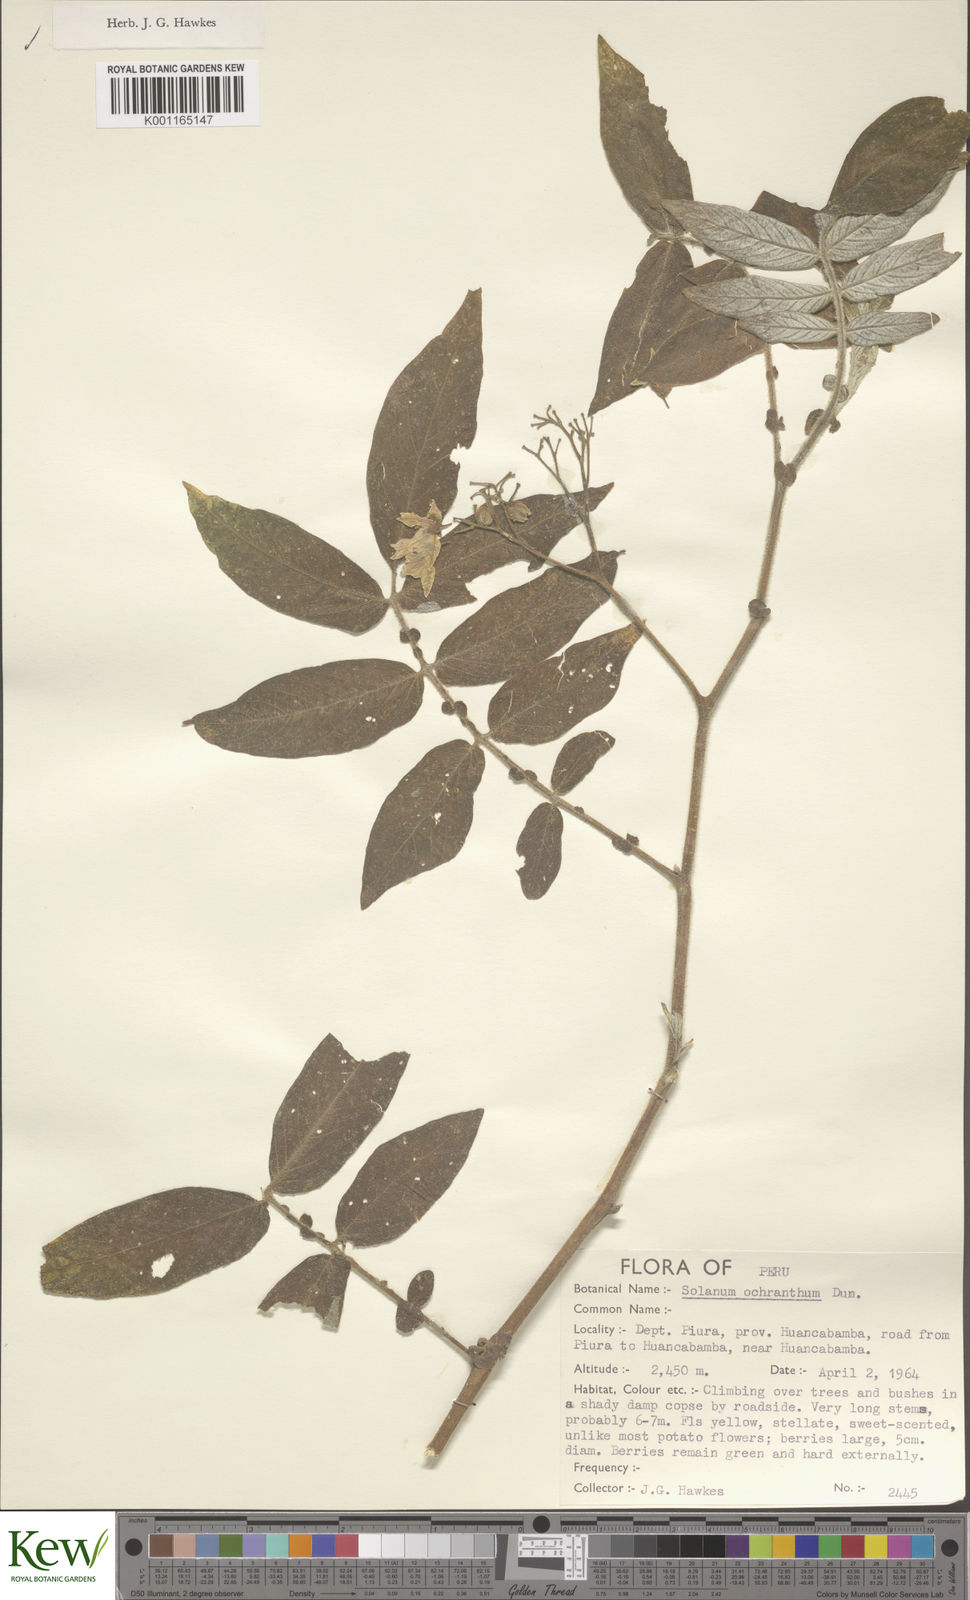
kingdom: Plantae
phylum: Tracheophyta
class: Magnoliopsida
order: Solanales
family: Solanaceae
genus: Solanum
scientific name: Solanum ochranthum
